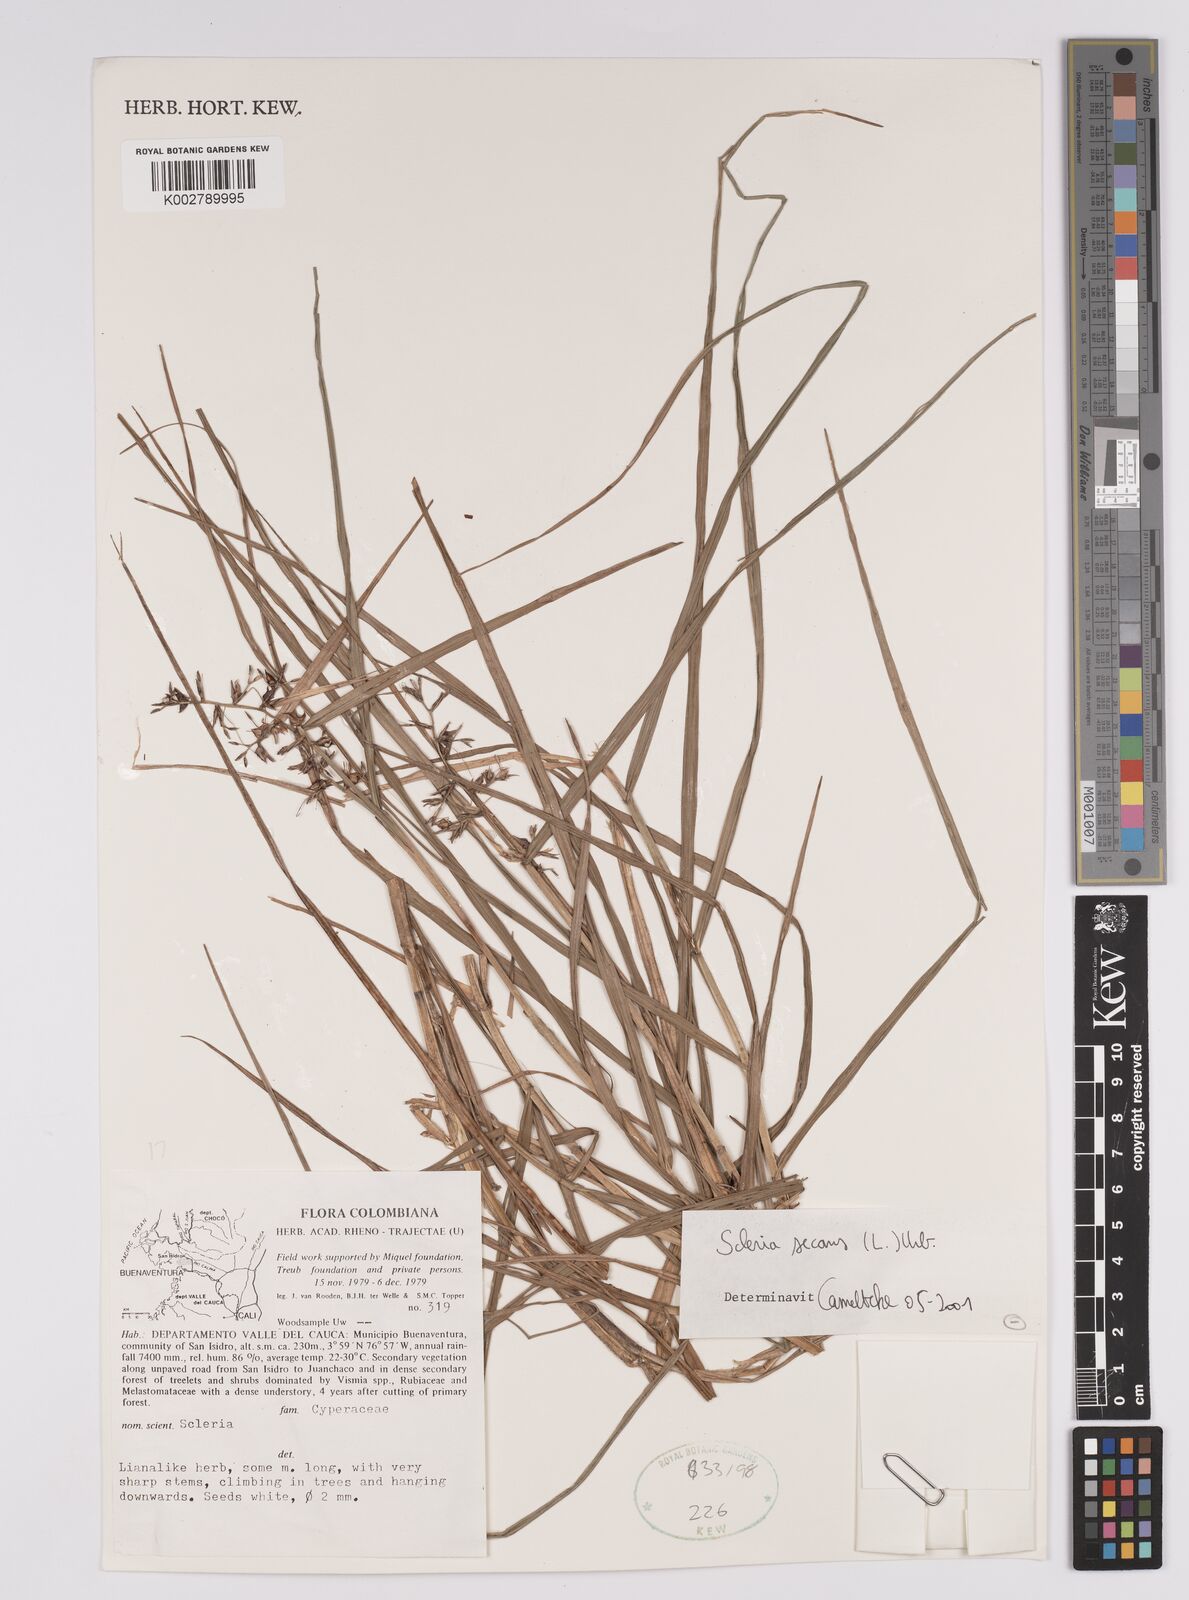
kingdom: Plantae
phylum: Tracheophyta
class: Liliopsida
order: Poales
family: Cyperaceae
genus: Scleria
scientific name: Scleria secans
